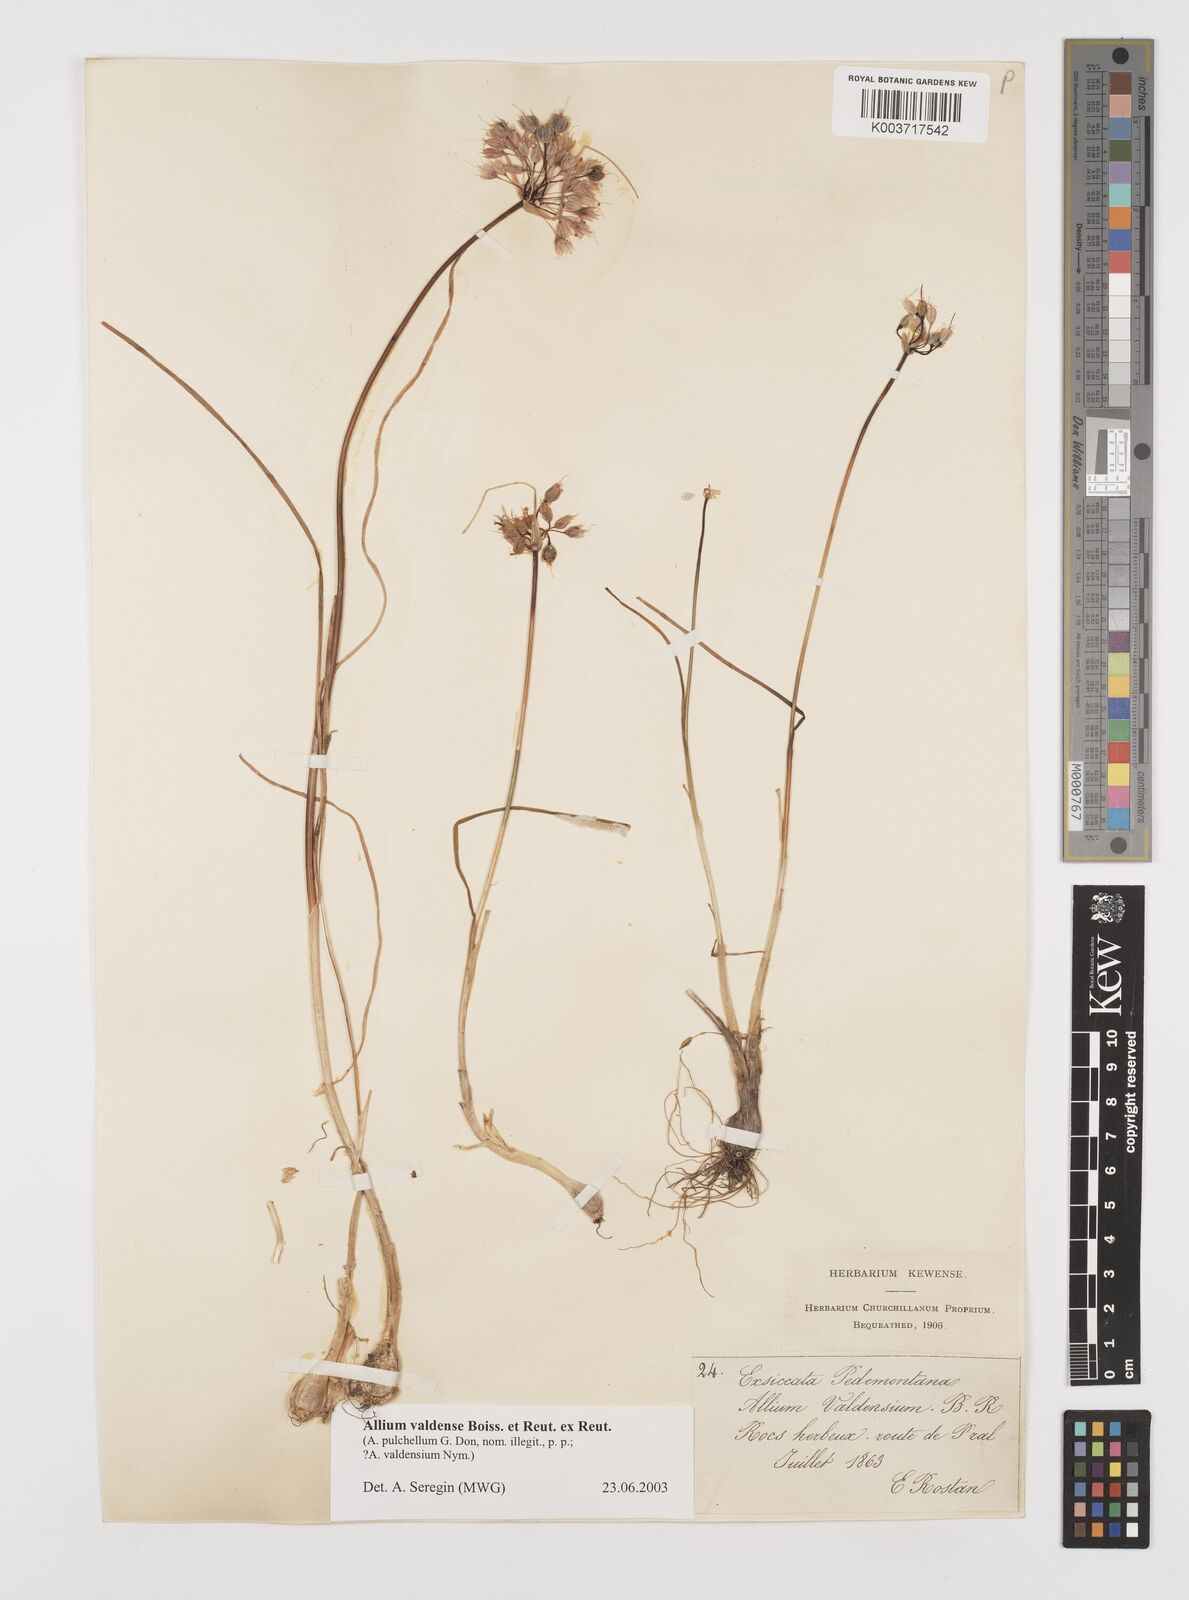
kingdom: Plantae
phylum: Tracheophyta
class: Liliopsida
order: Asparagales
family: Amaryllidaceae
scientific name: Amaryllidaceae
